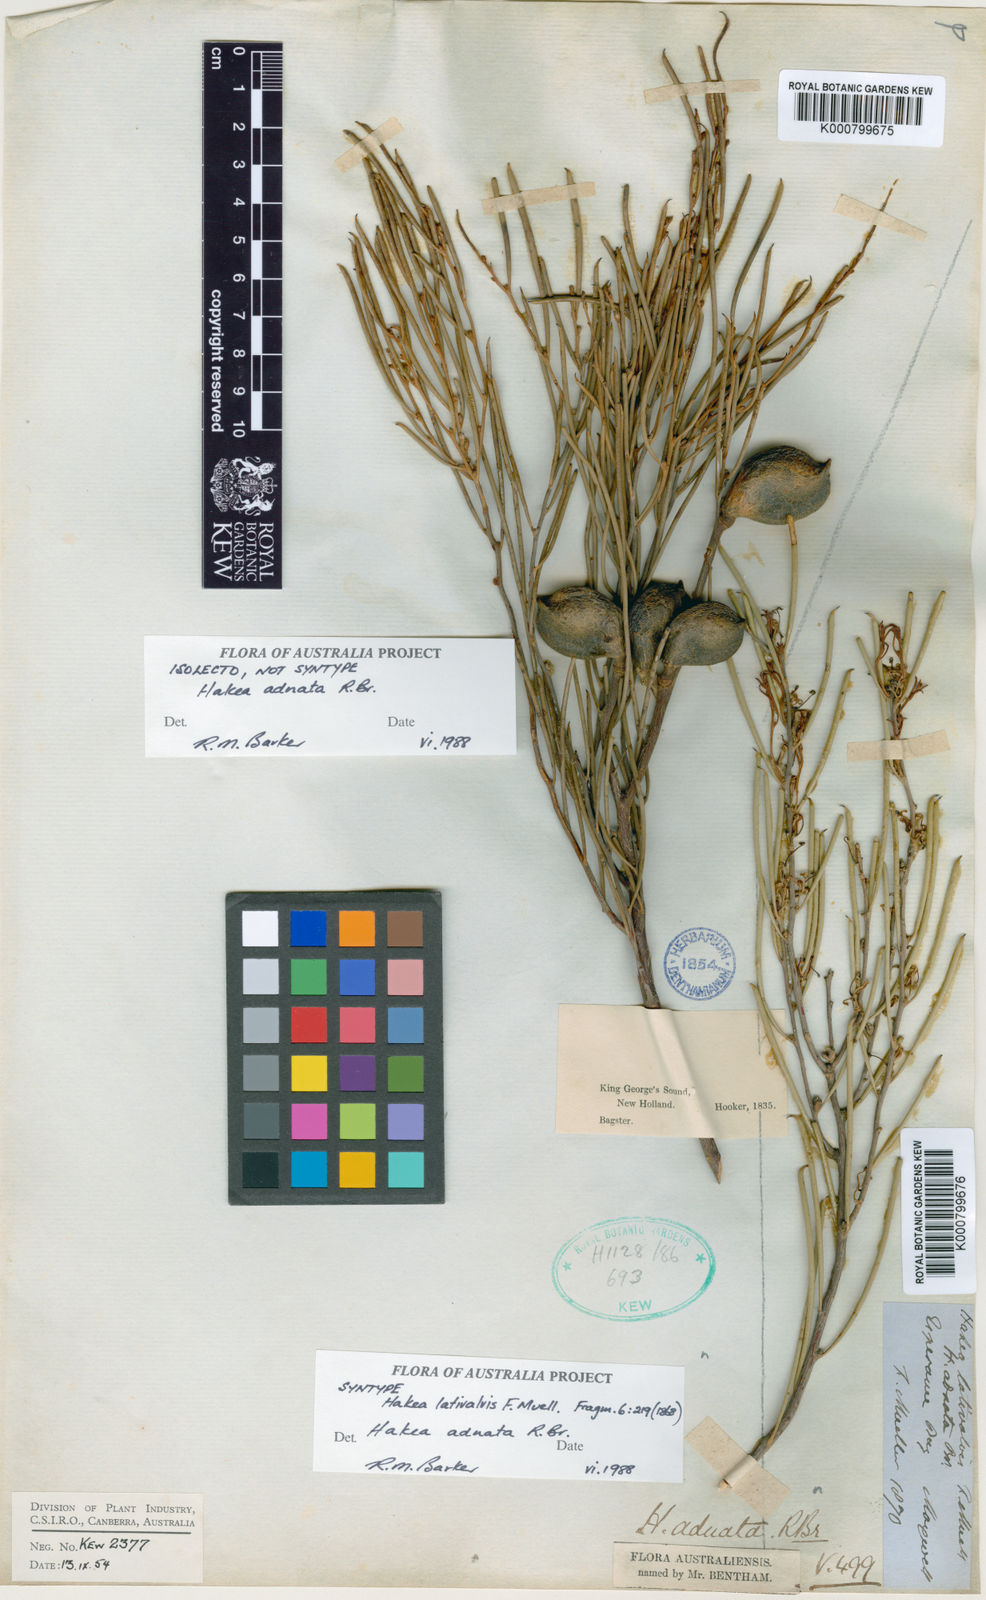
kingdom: Plantae
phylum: Tracheophyta
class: Magnoliopsida
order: Proteales
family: Proteaceae
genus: Hakea
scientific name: Hakea adnata
